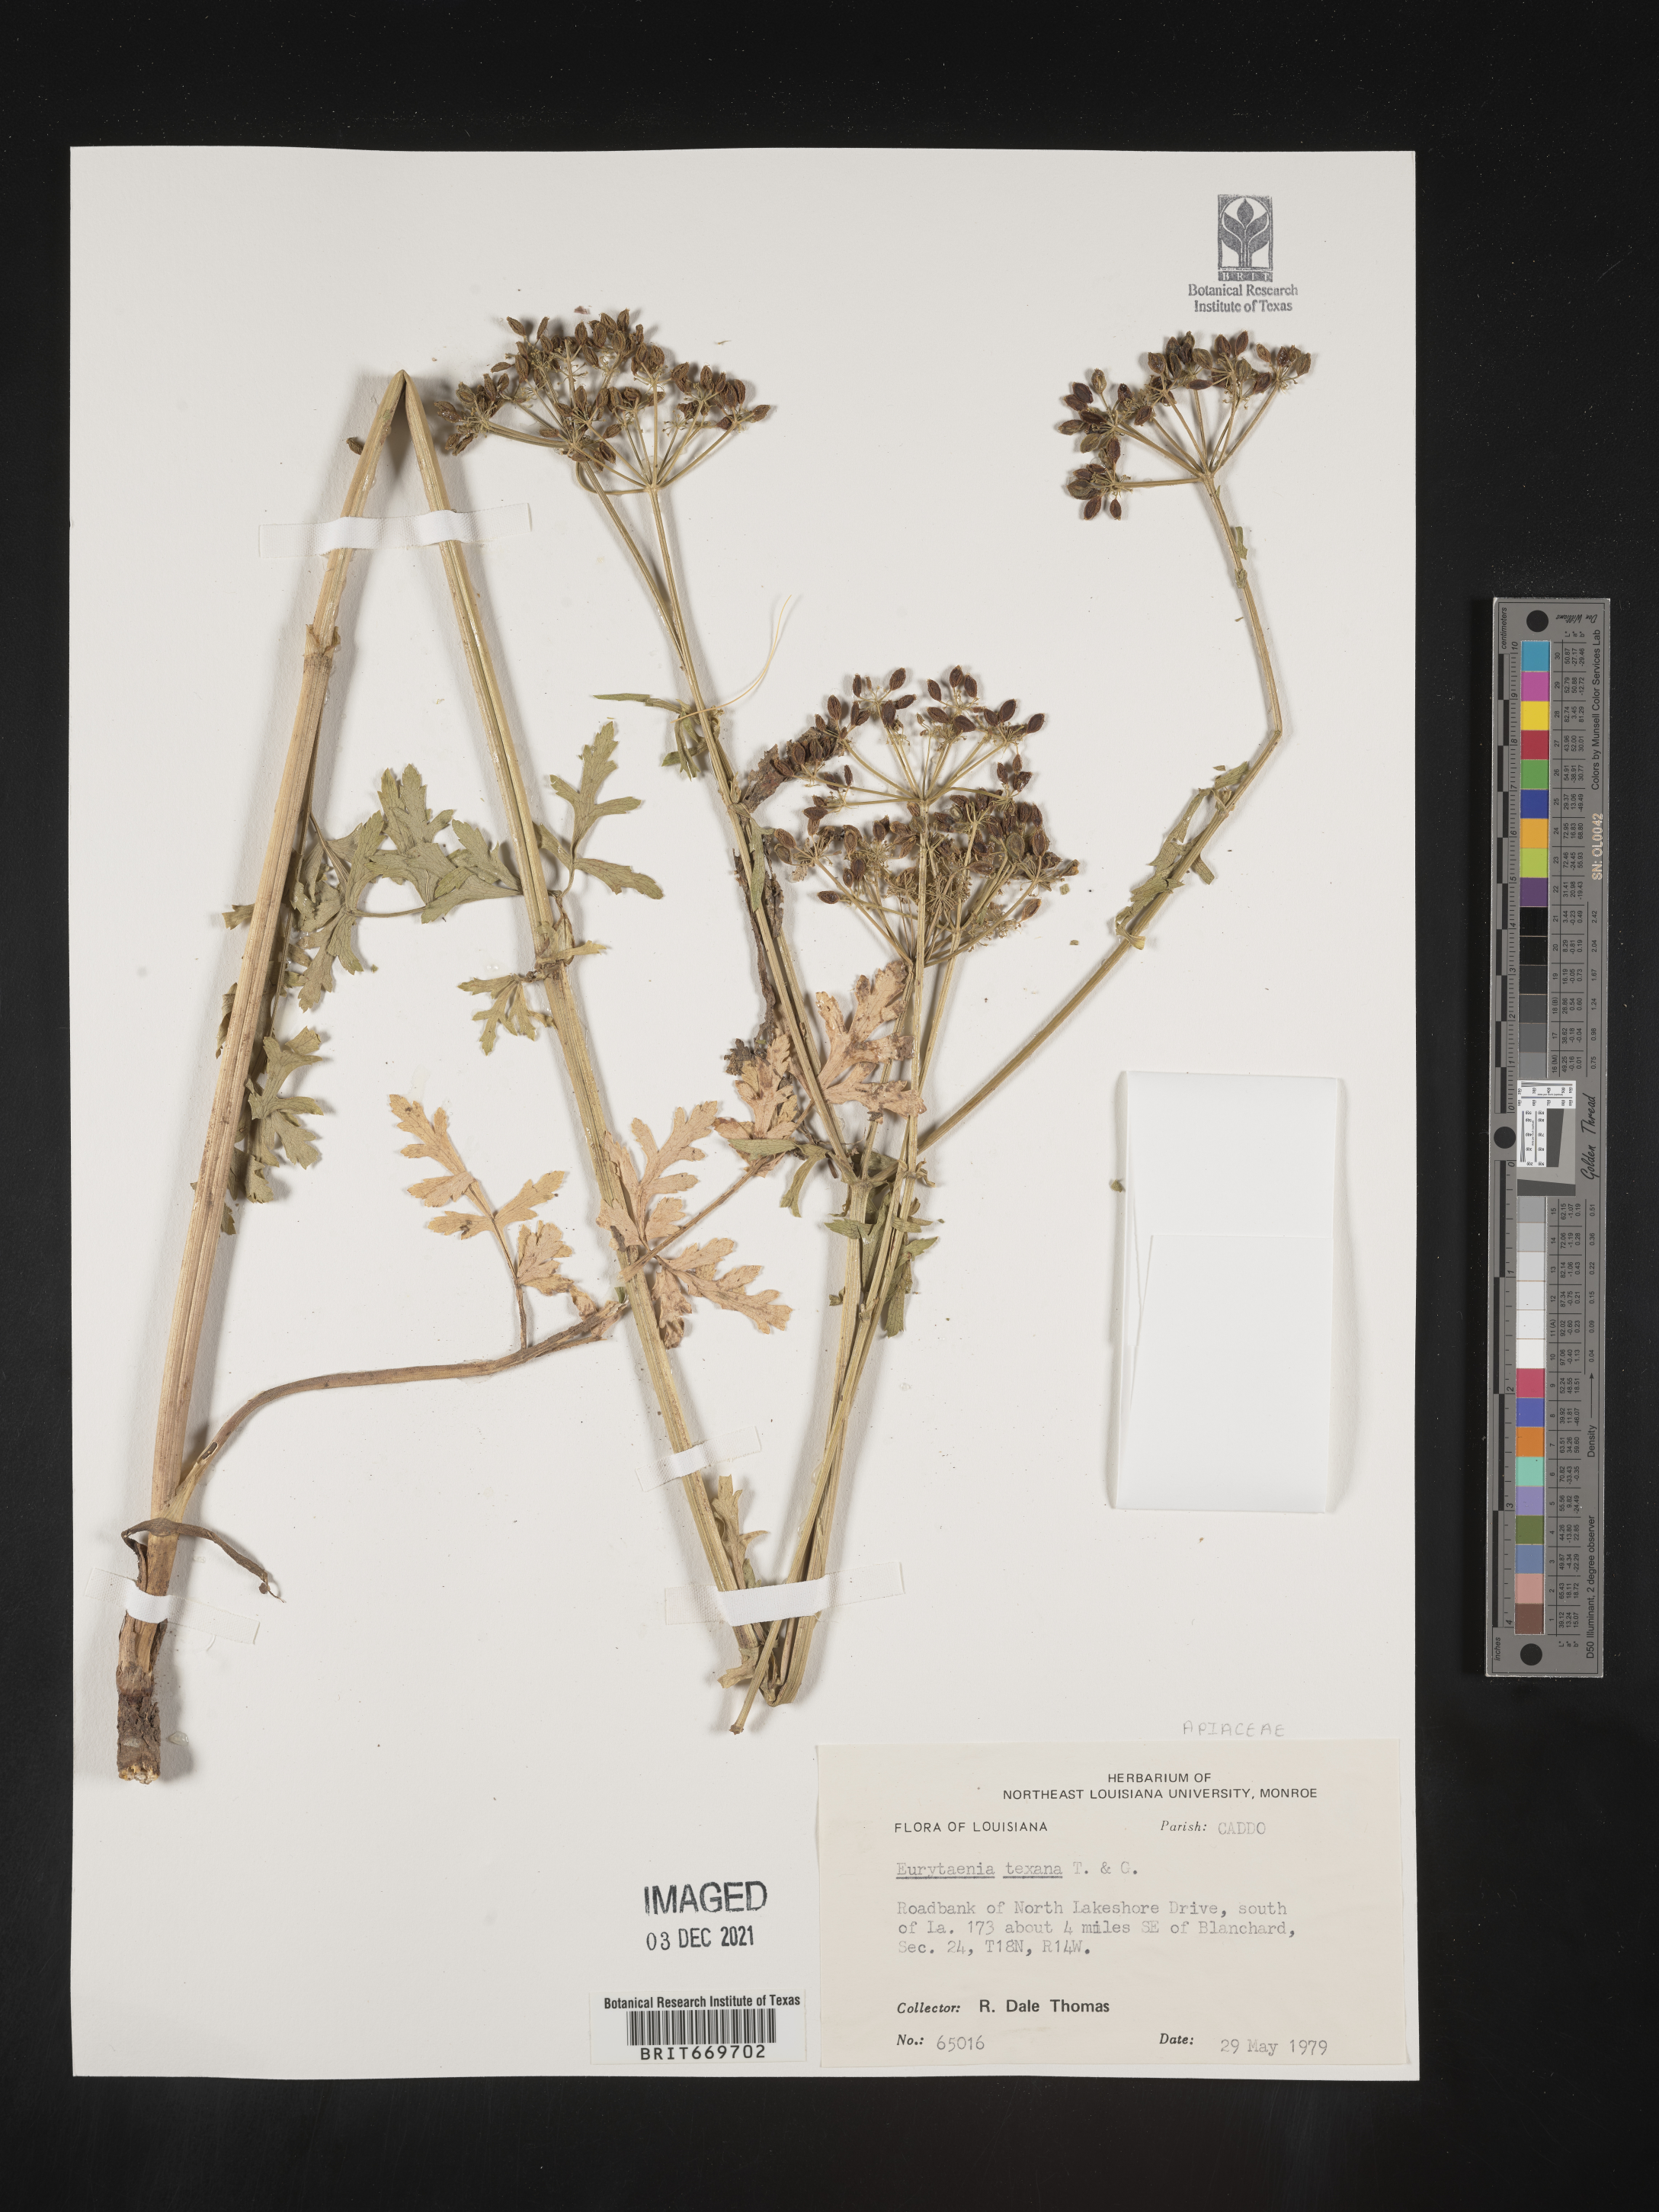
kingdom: Plantae
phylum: Tracheophyta
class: Magnoliopsida
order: Apiales
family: Apiaceae
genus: Eurytaenia
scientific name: Eurytaenia texana
